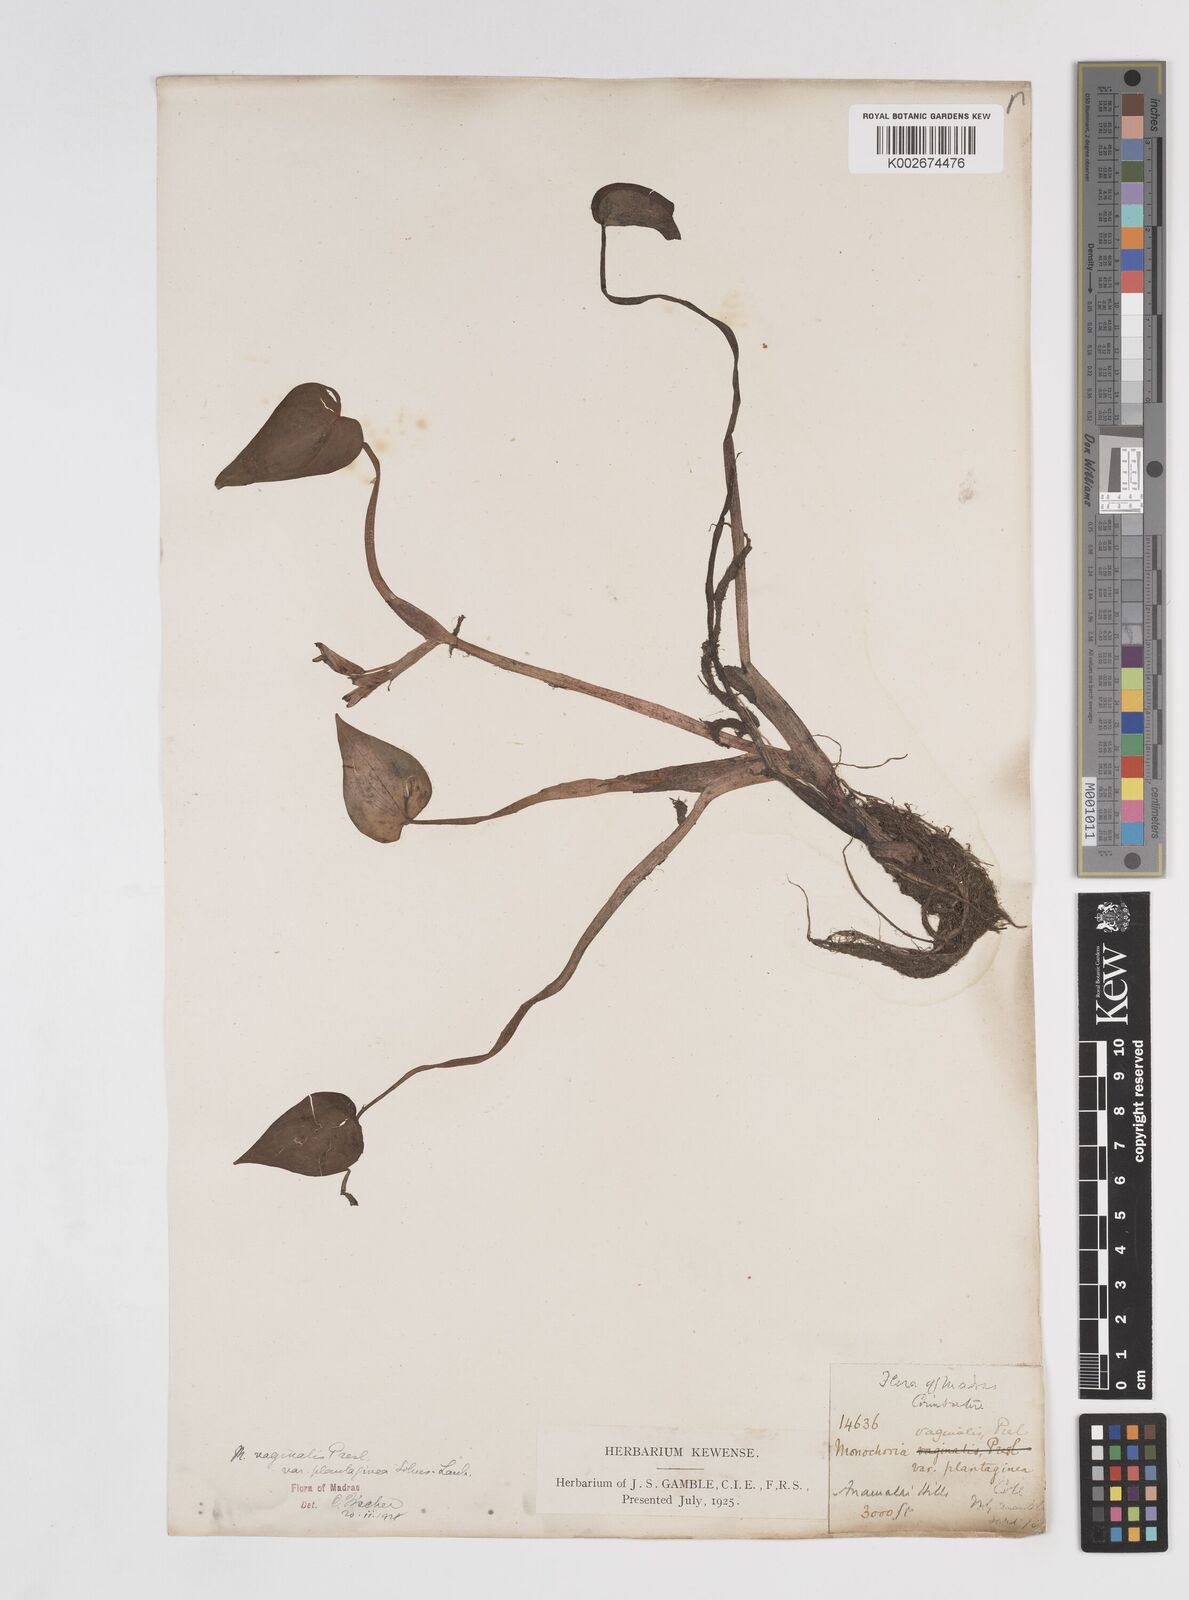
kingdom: Plantae
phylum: Tracheophyta
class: Liliopsida
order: Commelinales
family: Pontederiaceae
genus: Pontederia
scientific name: Pontederia vaginalis
